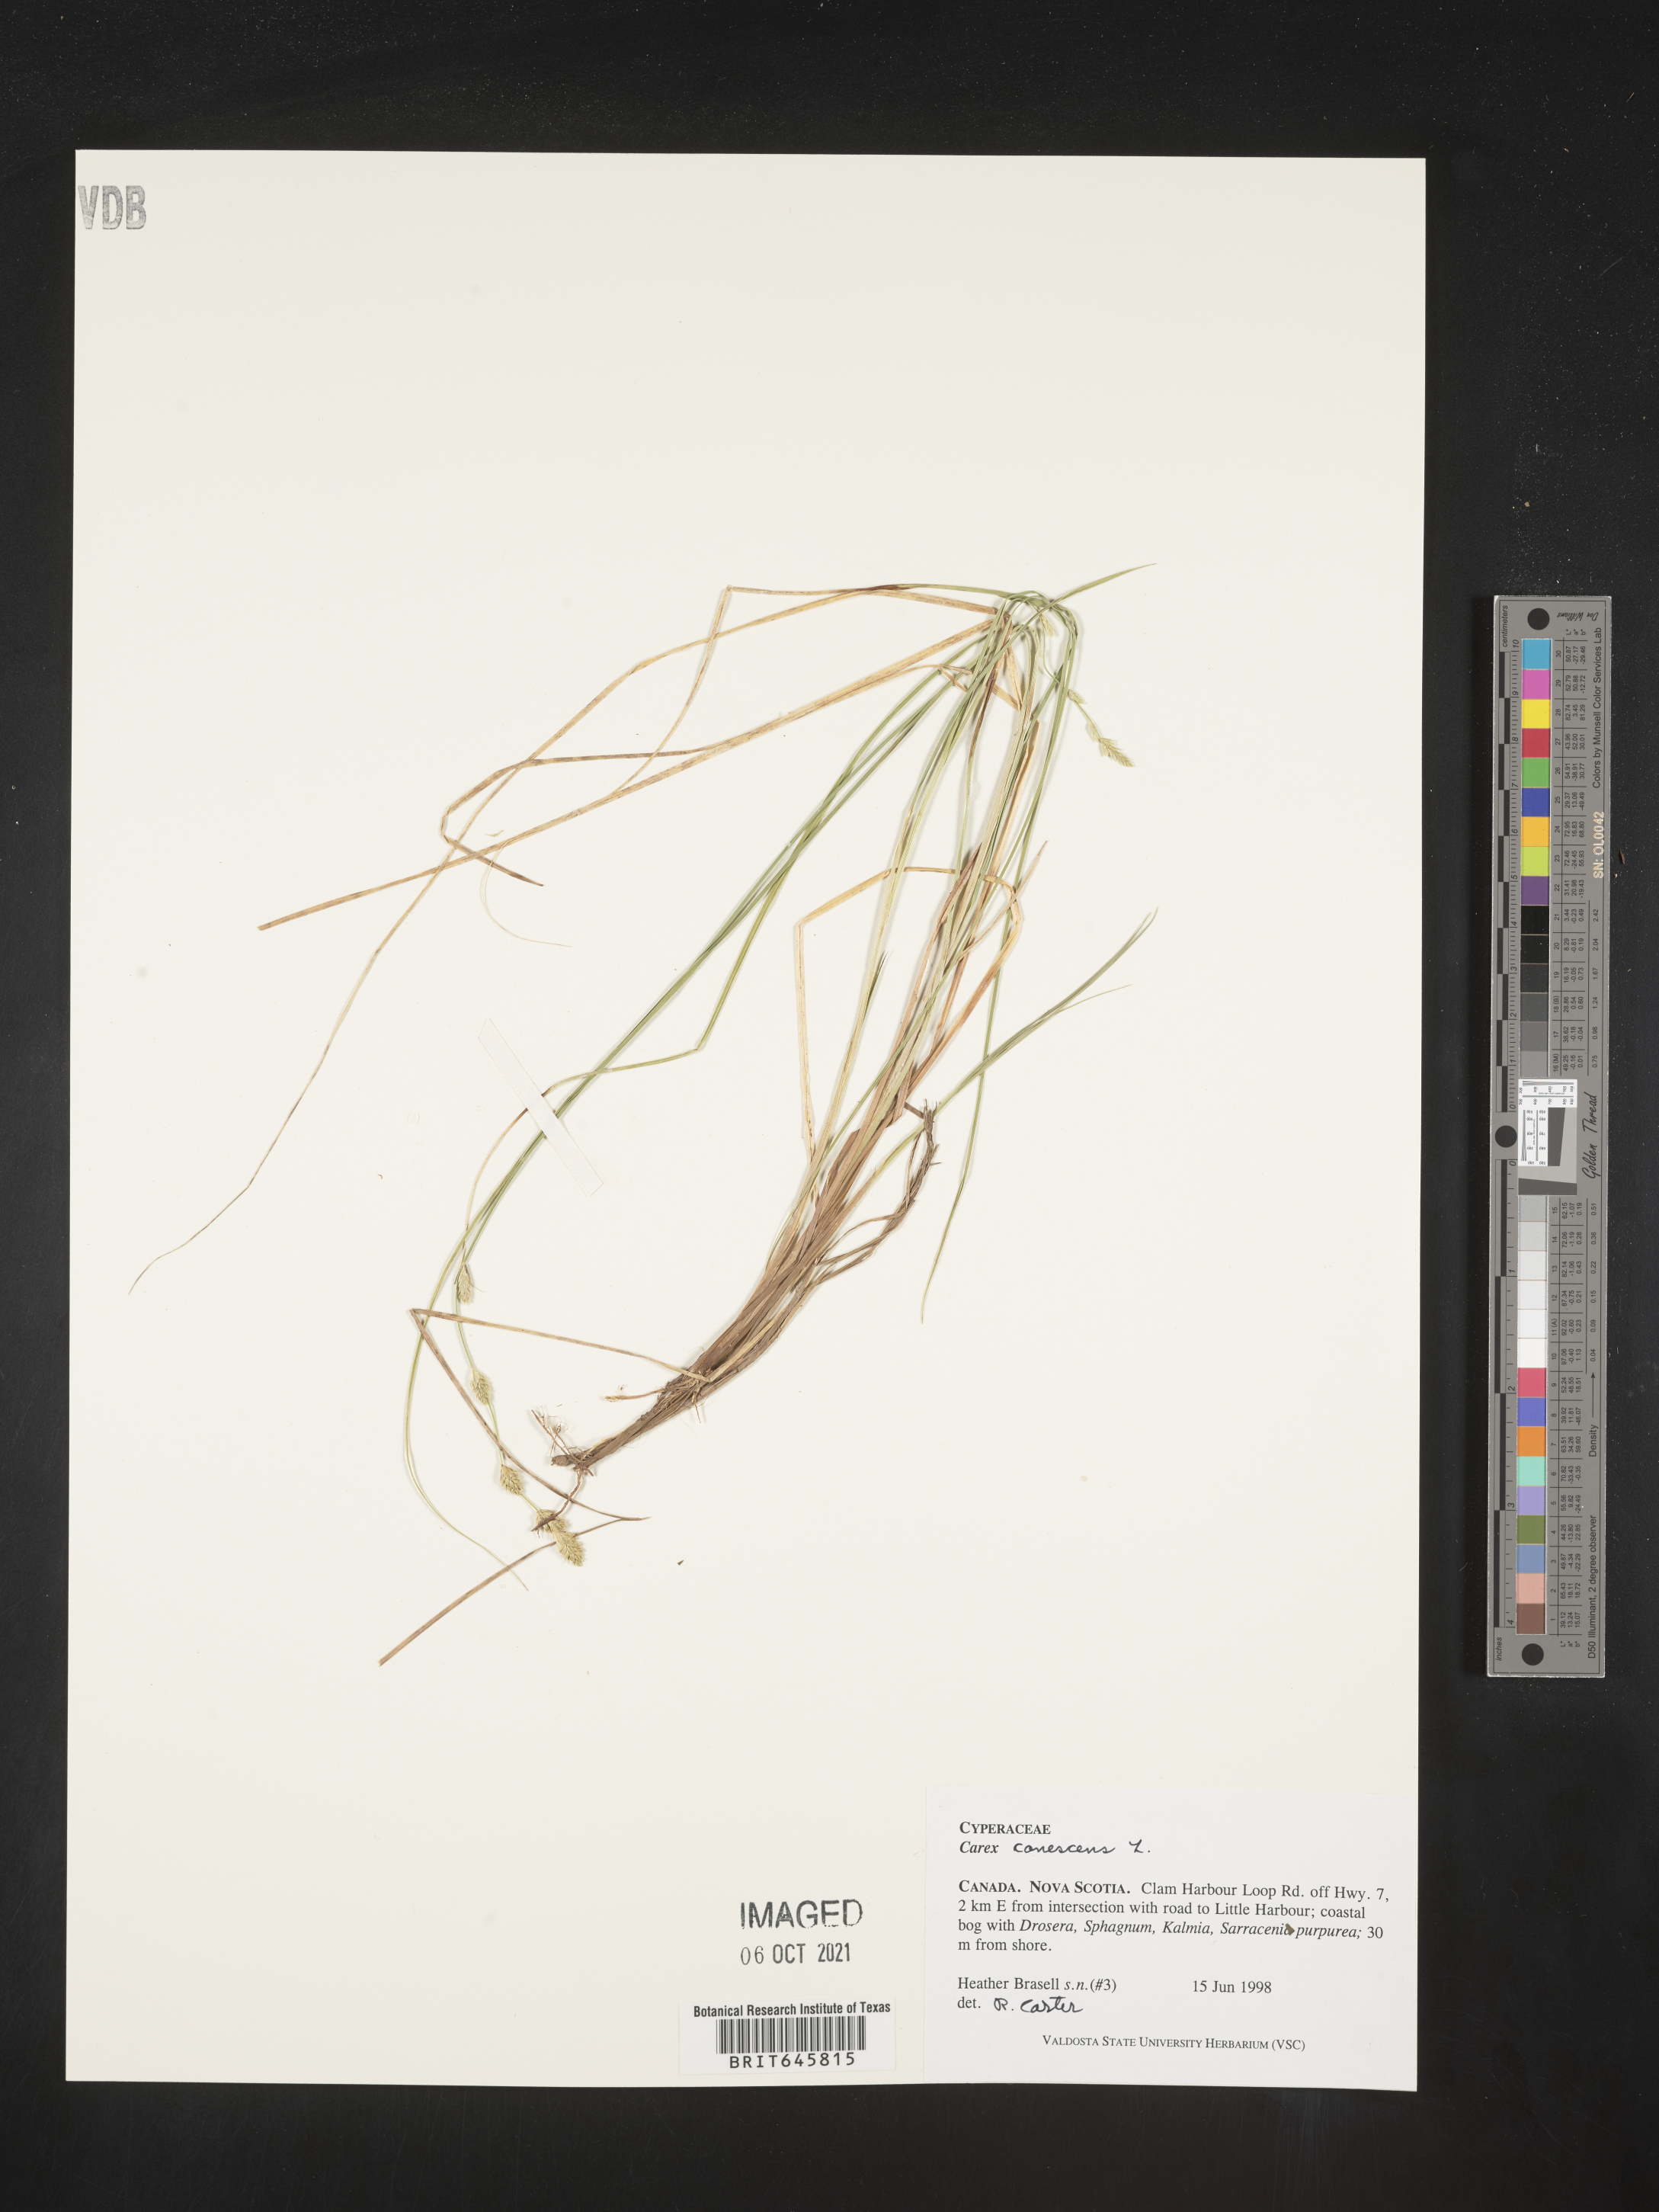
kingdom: Plantae
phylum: Tracheophyta
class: Liliopsida
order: Poales
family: Cyperaceae
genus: Carex
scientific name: Carex canescens
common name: White sedge
